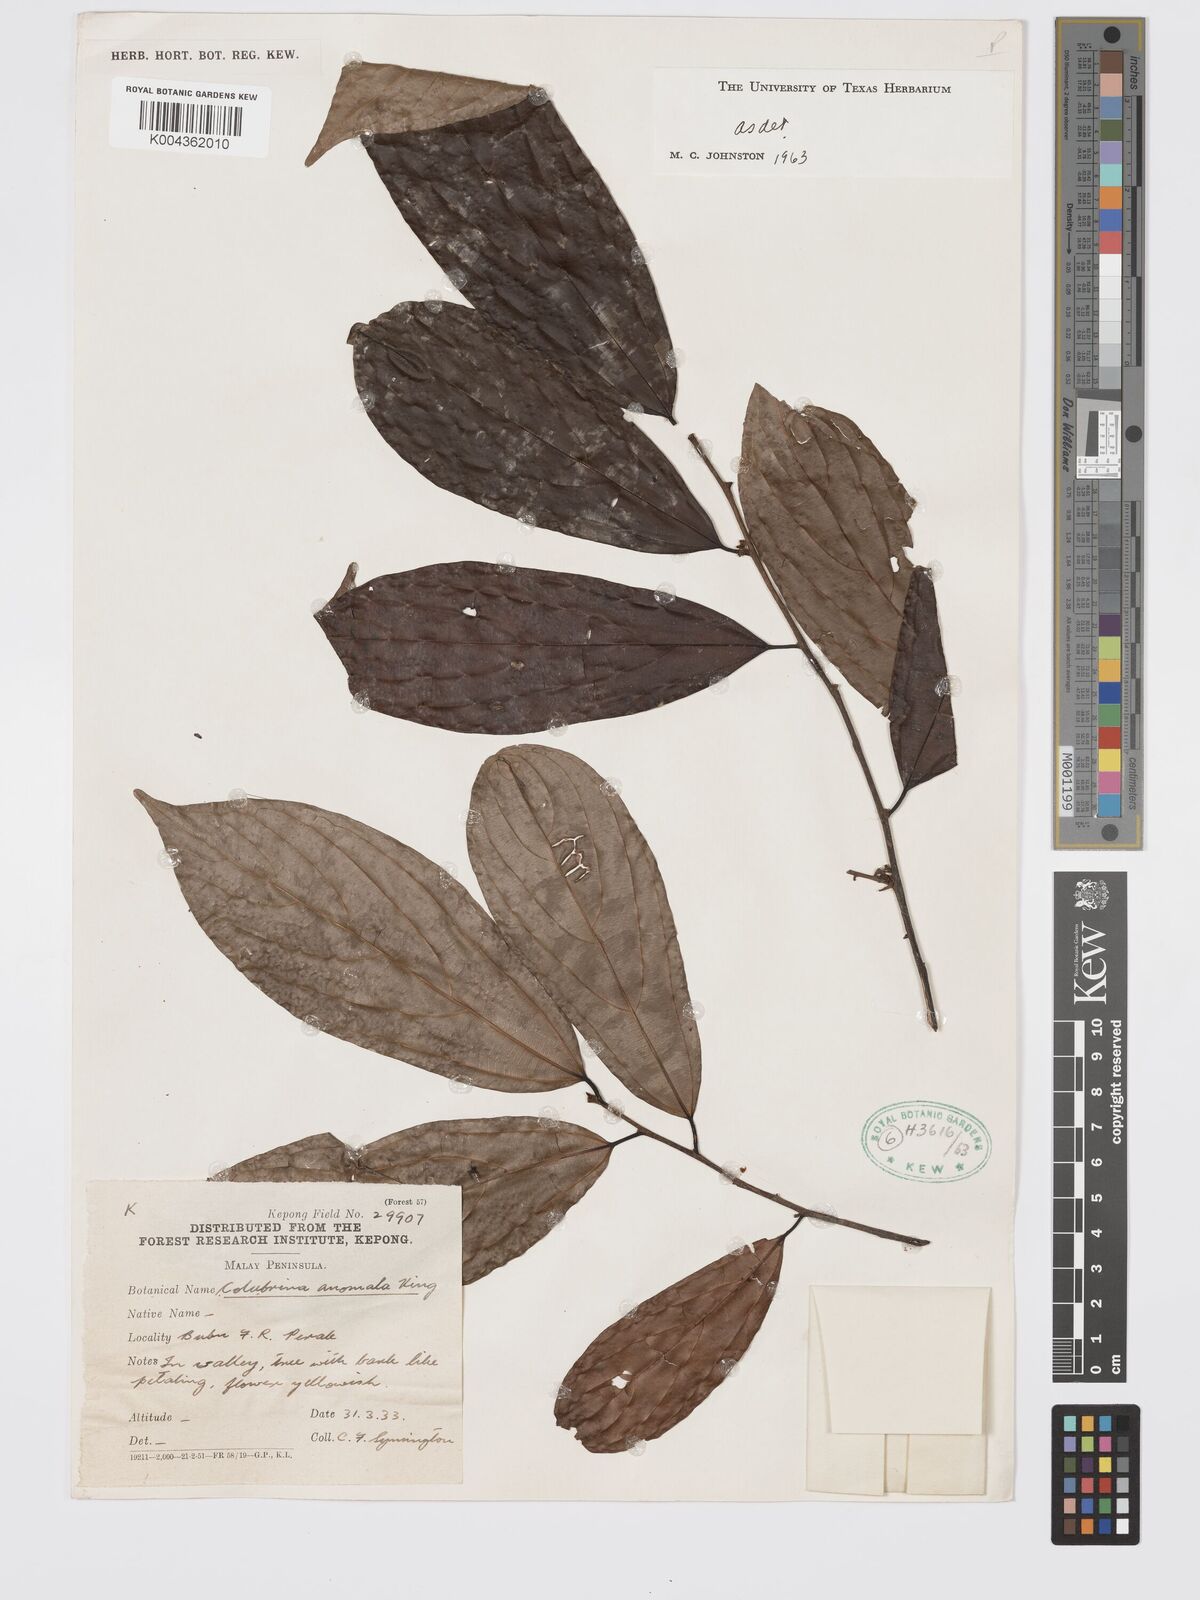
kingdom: Plantae
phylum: Tracheophyta
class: Magnoliopsida
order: Rosales
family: Rhamnaceae
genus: Colubrina
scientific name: Colubrina beccariana
